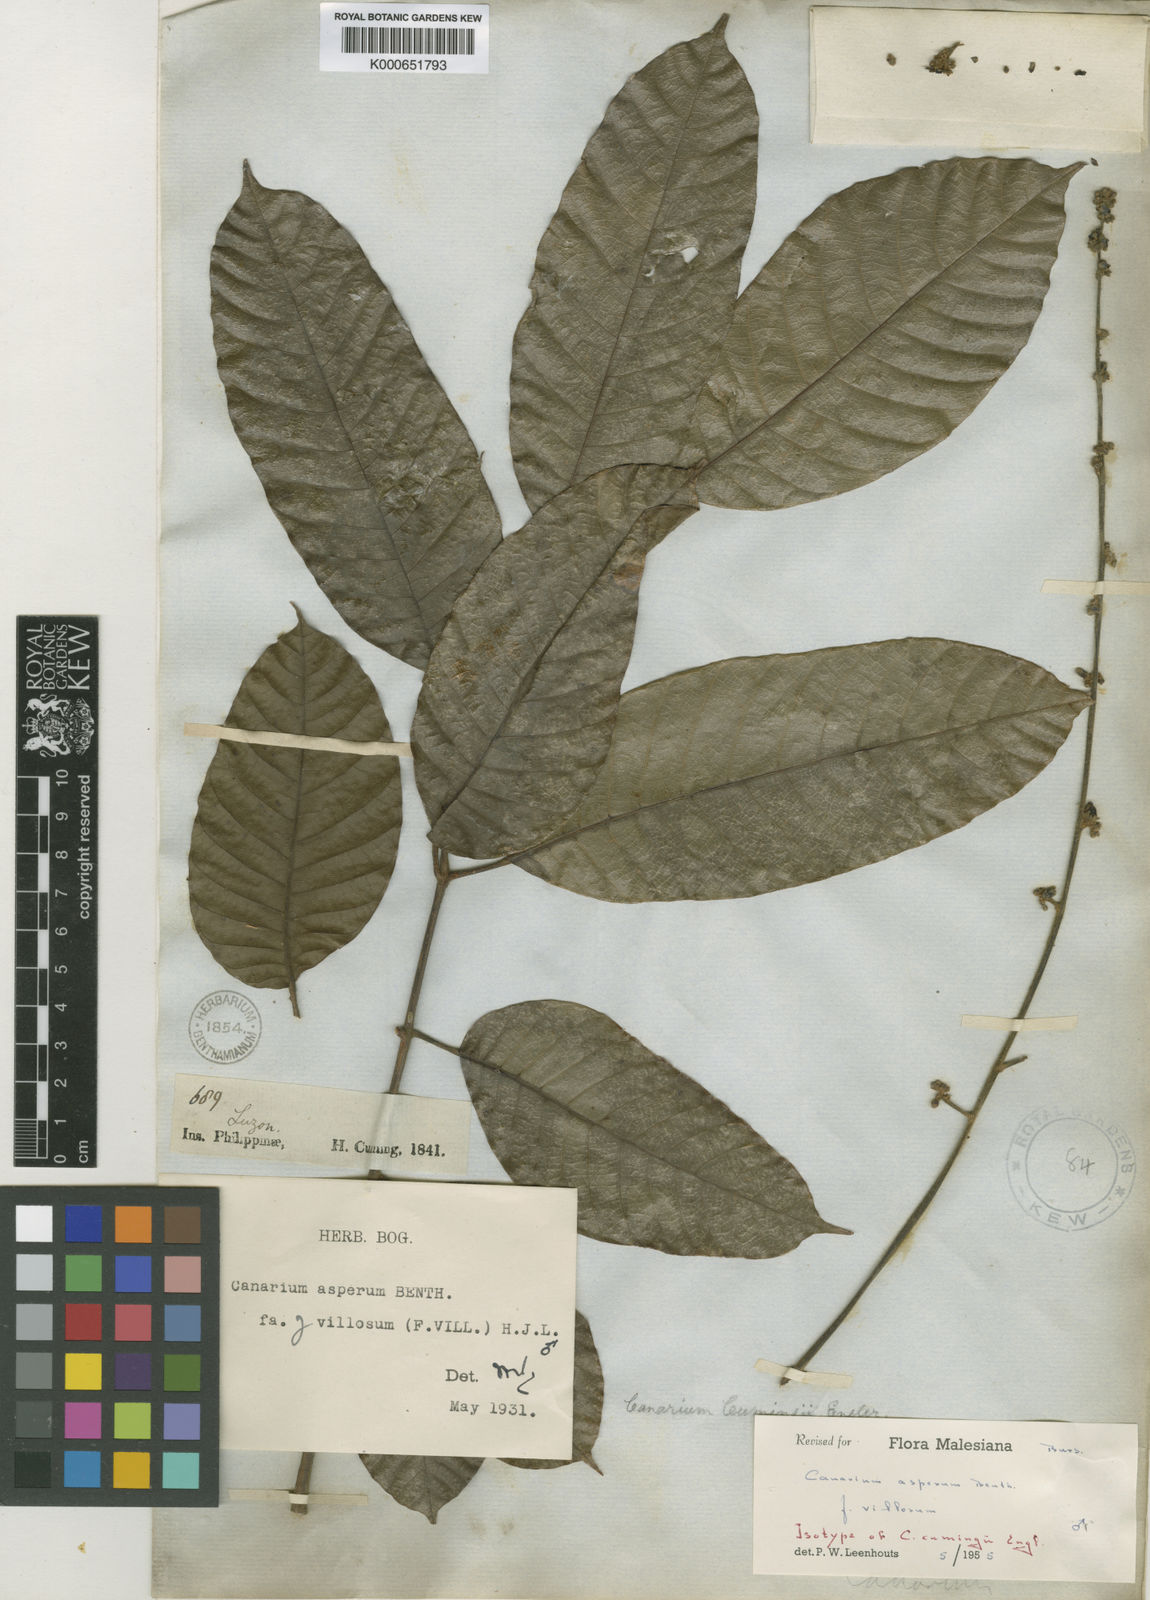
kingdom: Plantae
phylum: Tracheophyta
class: Magnoliopsida
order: Sapindales
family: Burseraceae
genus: Canarium
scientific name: Canarium asperum
